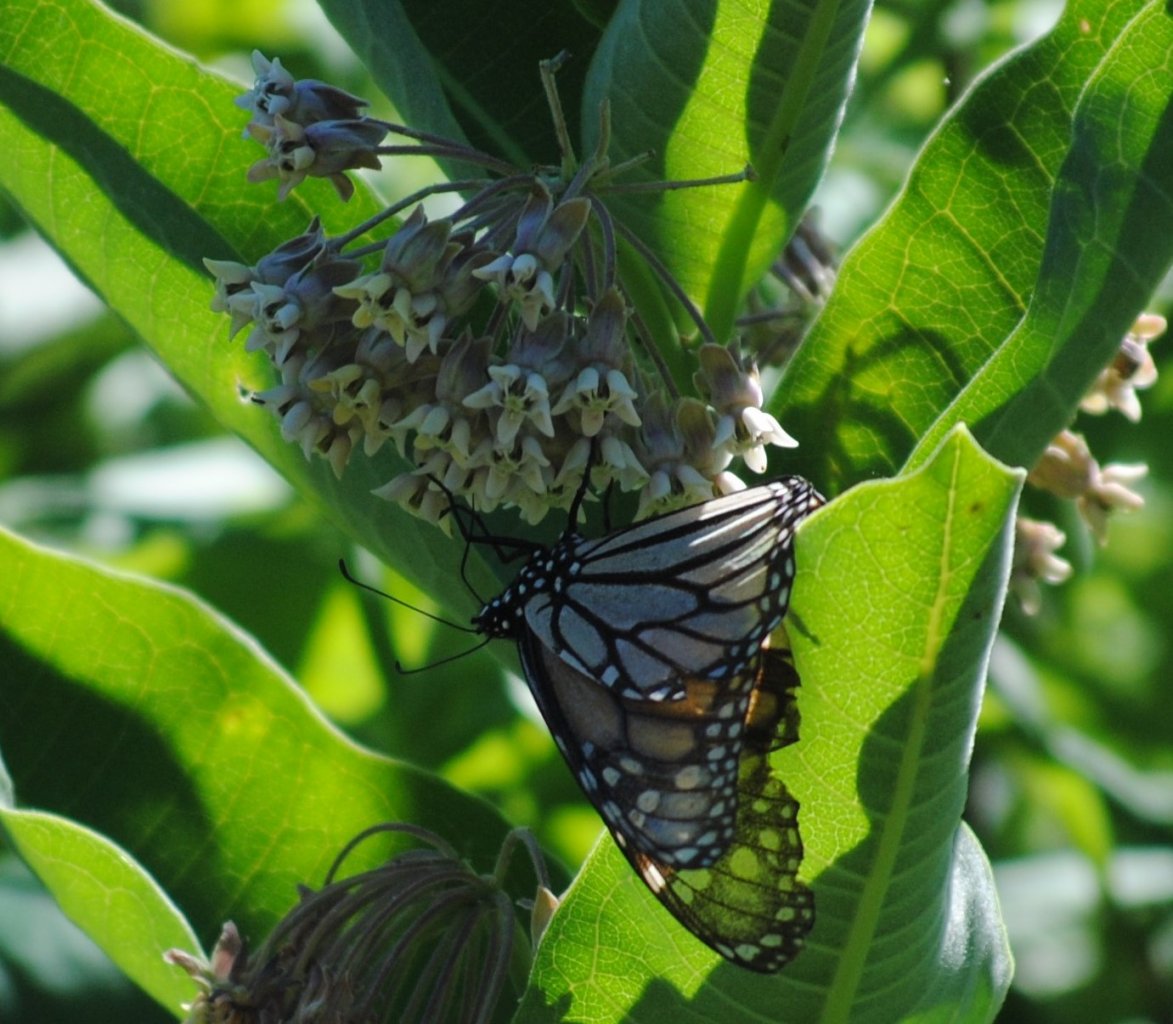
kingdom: Animalia
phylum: Arthropoda
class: Insecta
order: Lepidoptera
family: Nymphalidae
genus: Danaus
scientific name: Danaus plexippus
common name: Monarch
